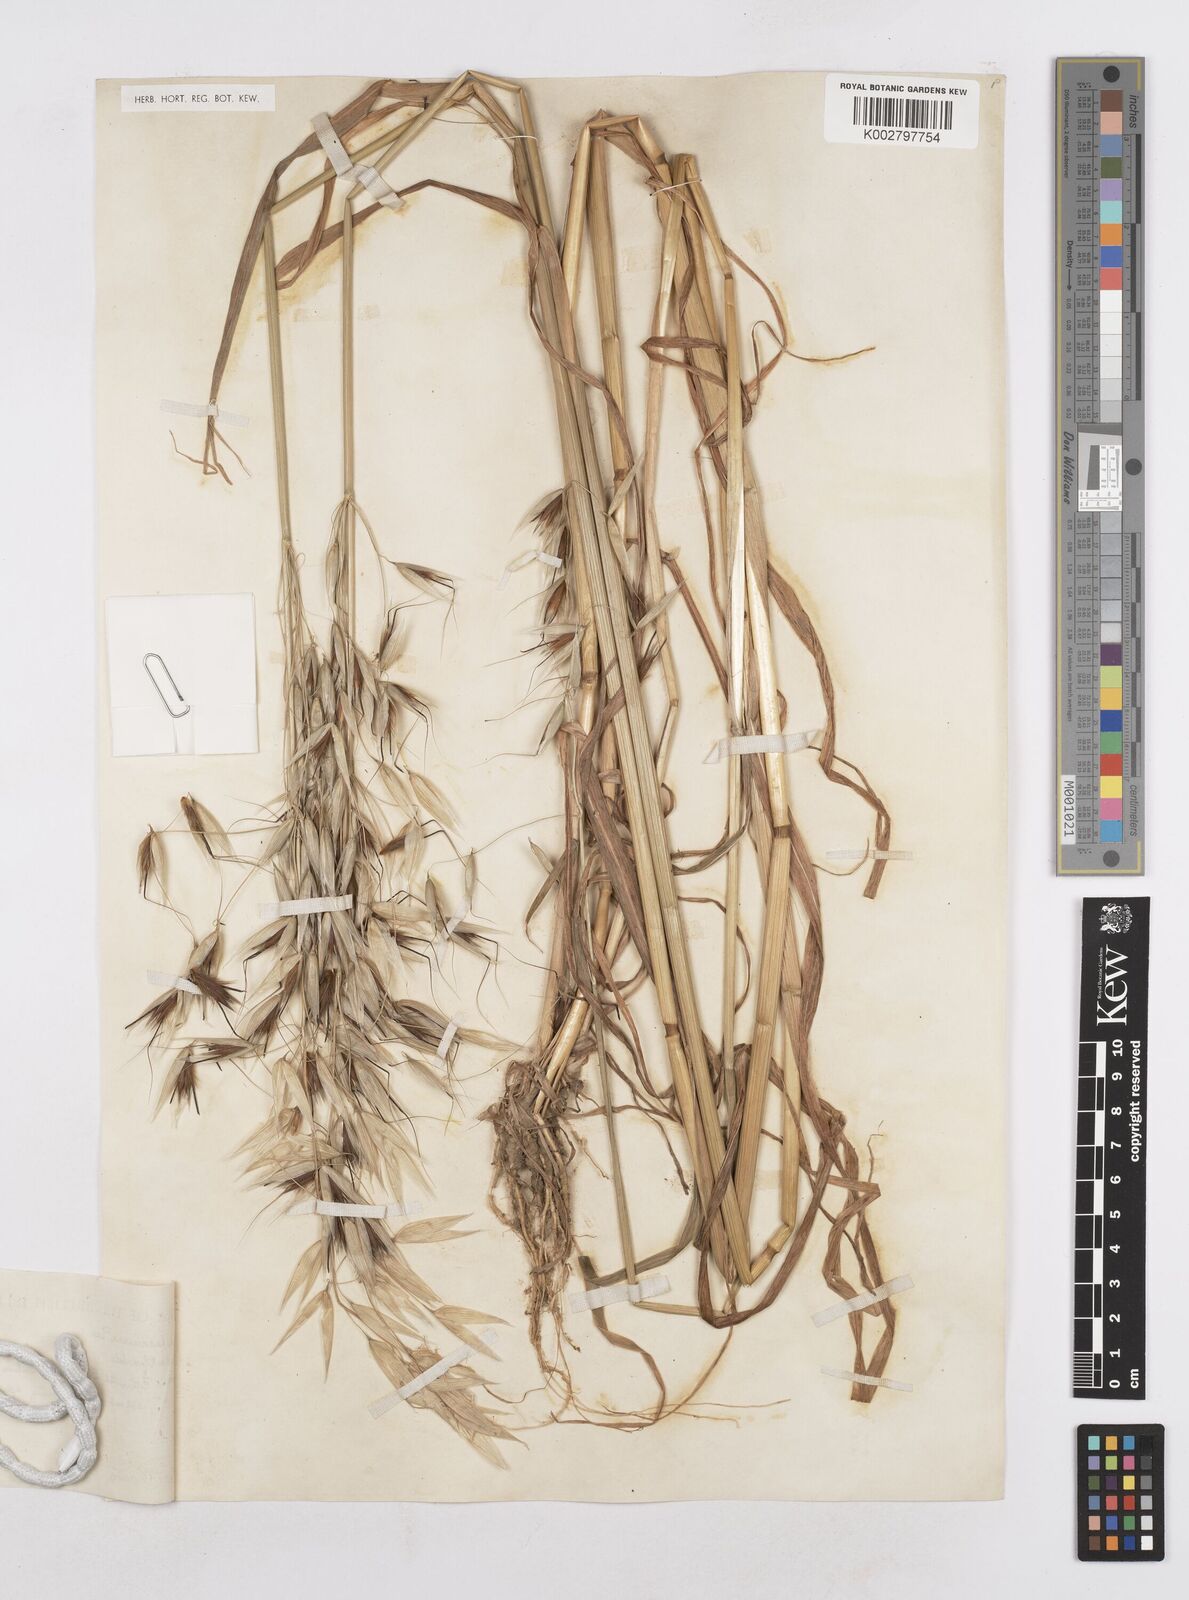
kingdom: Plantae
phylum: Tracheophyta
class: Liliopsida
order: Poales
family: Poaceae
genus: Avena
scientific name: Avena sterilis
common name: Animated oat
